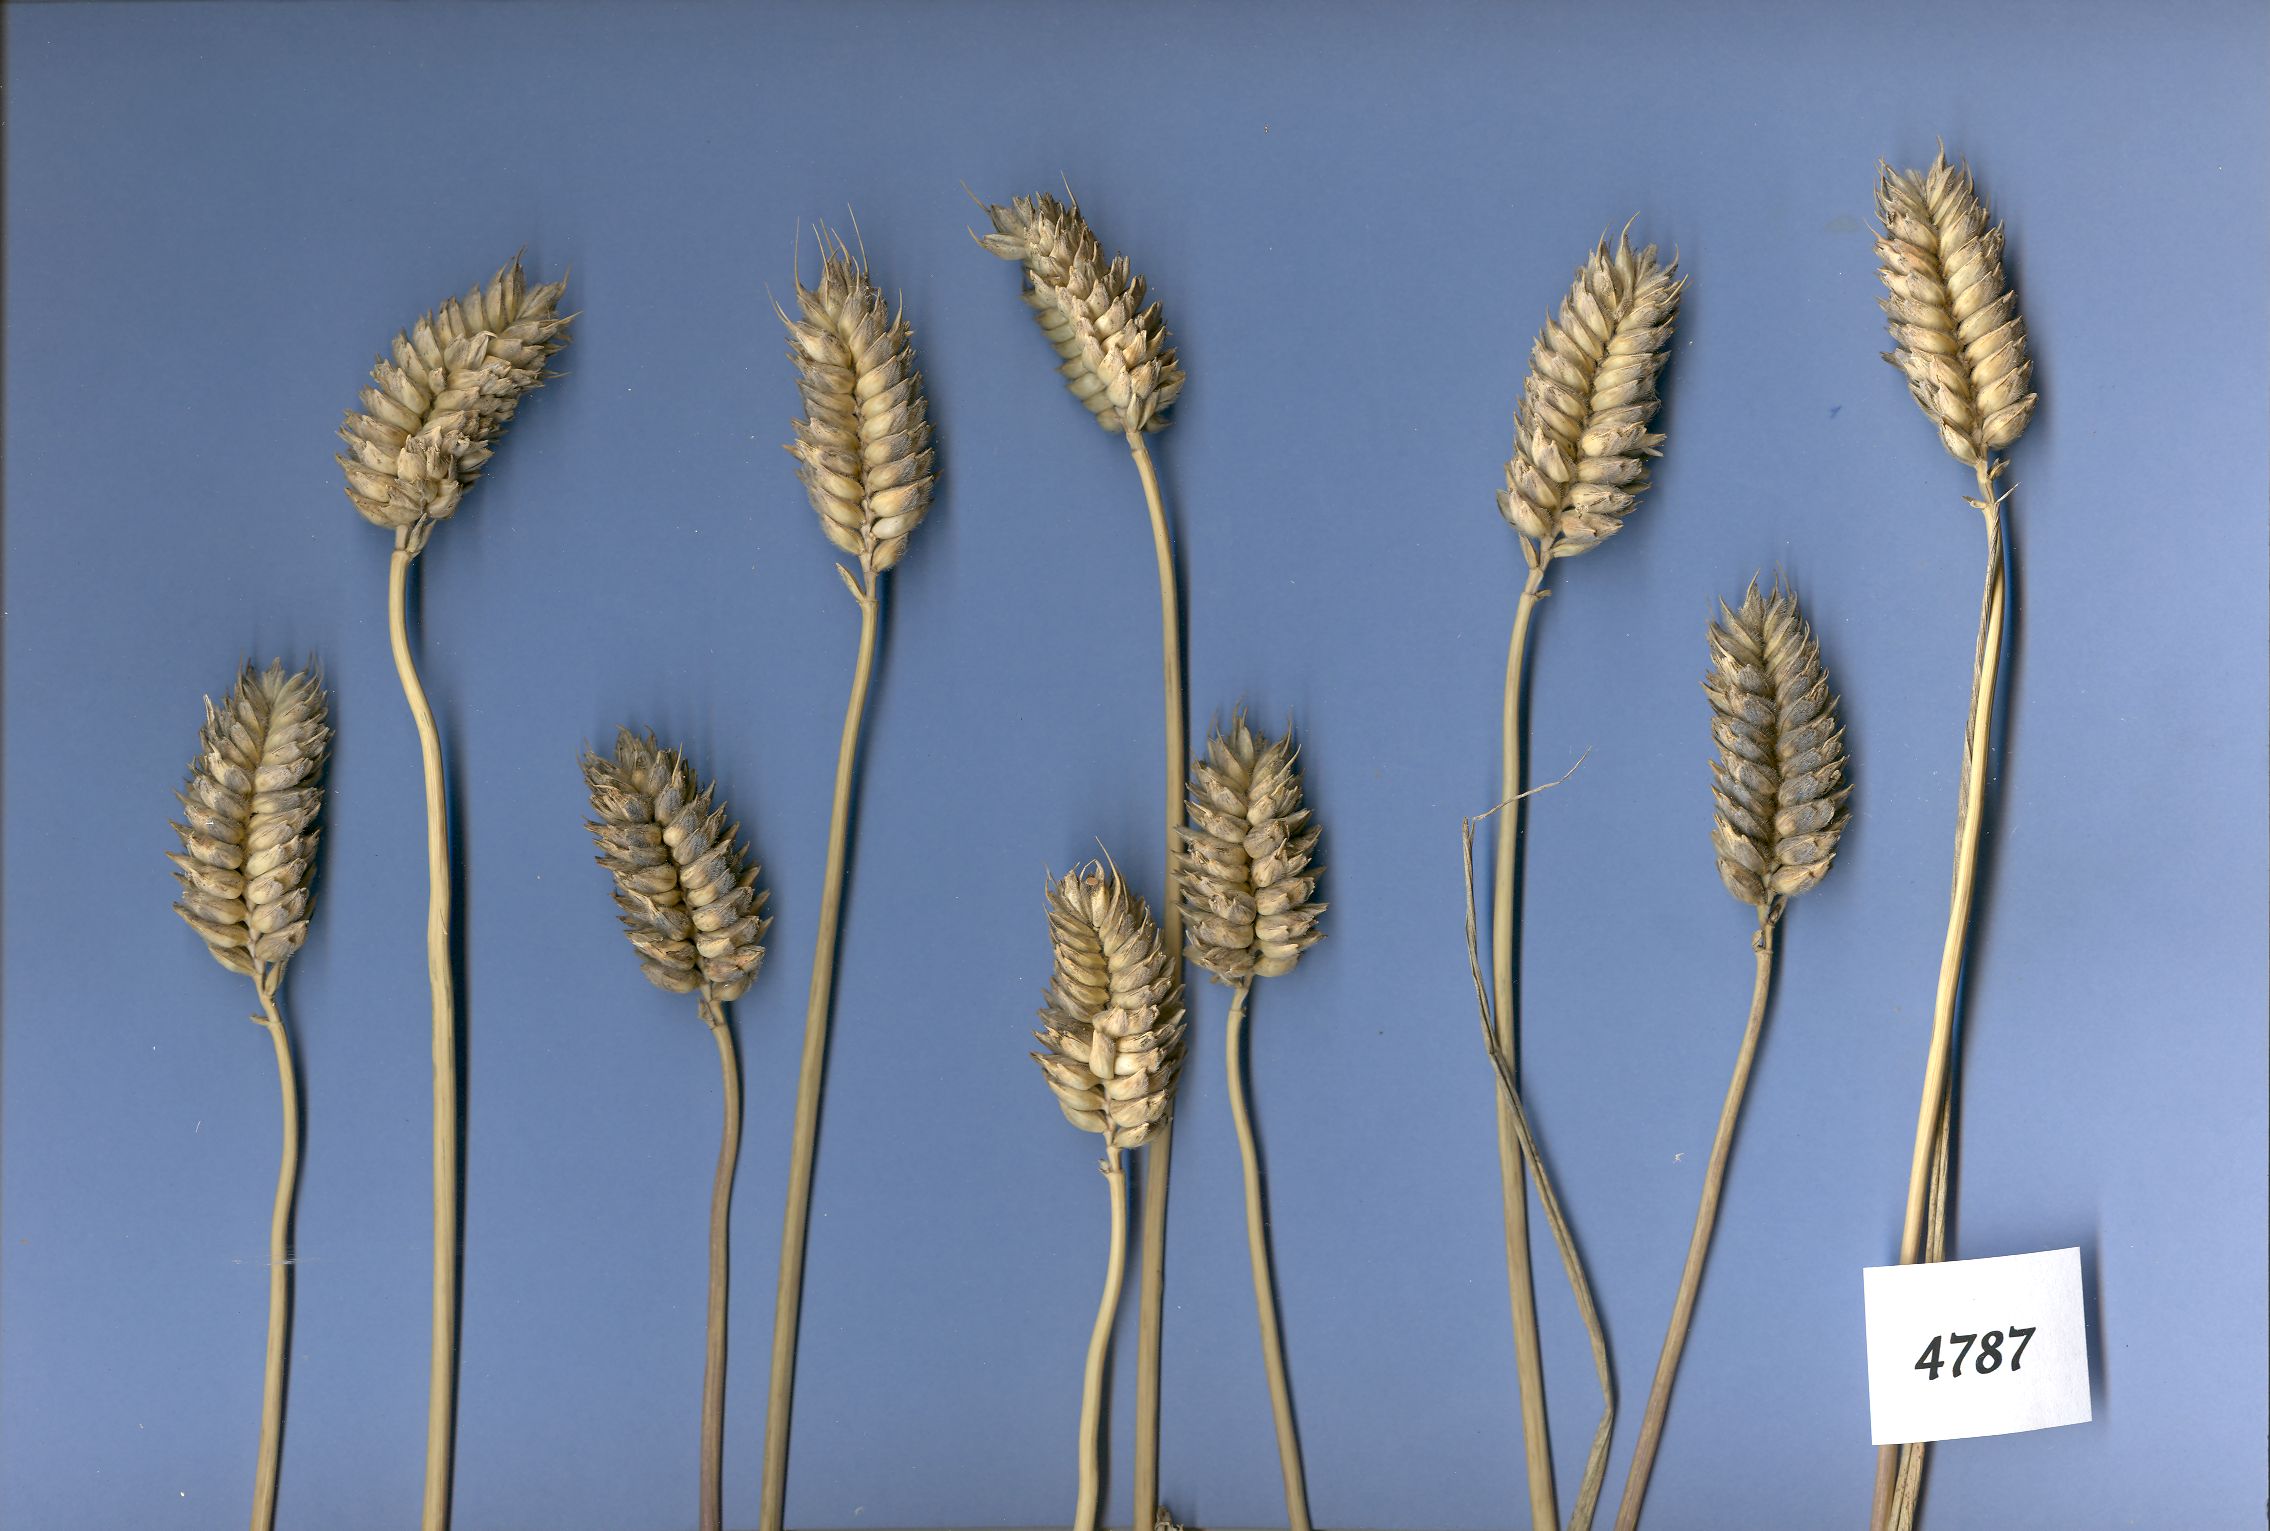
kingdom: Plantae
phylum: Tracheophyta
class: Liliopsida
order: Poales
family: Poaceae
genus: Triticum
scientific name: Triticum aestivum
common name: Common wheat
